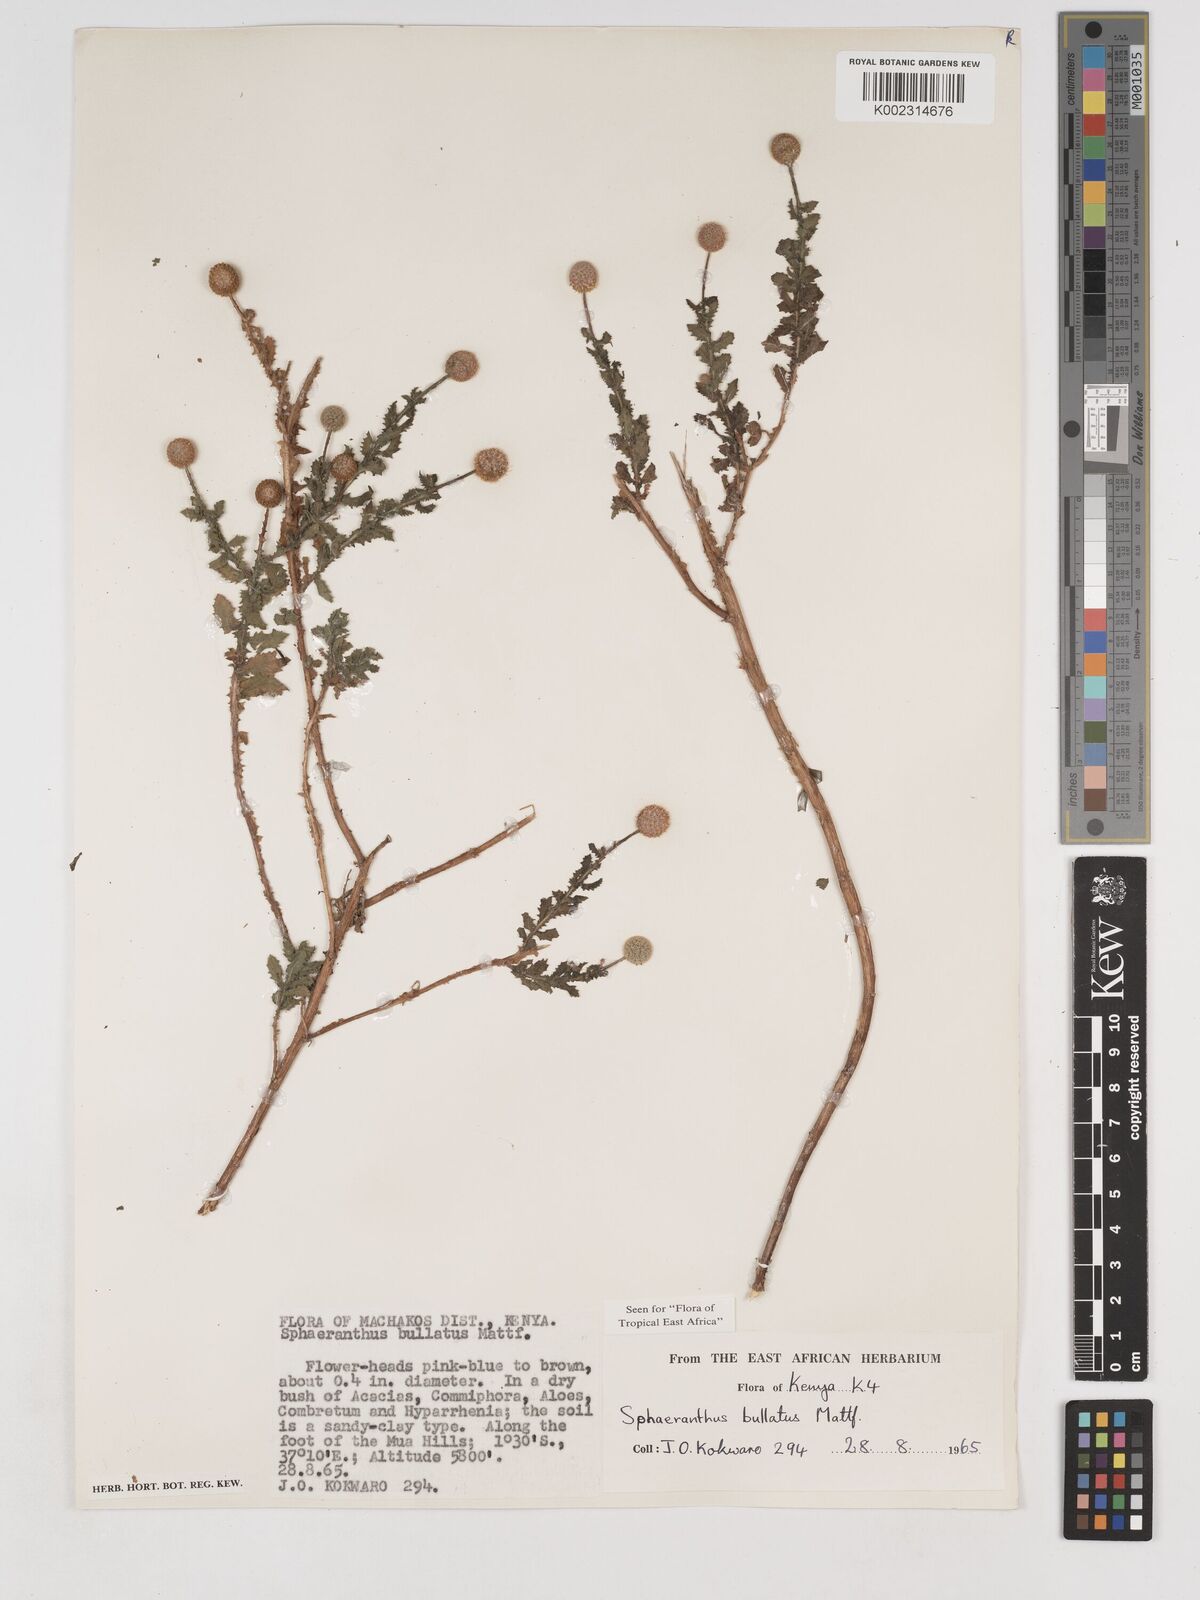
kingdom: Plantae
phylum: Tracheophyta
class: Magnoliopsida
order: Asterales
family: Asteraceae
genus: Sphaeranthus
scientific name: Sphaeranthus bullatus
